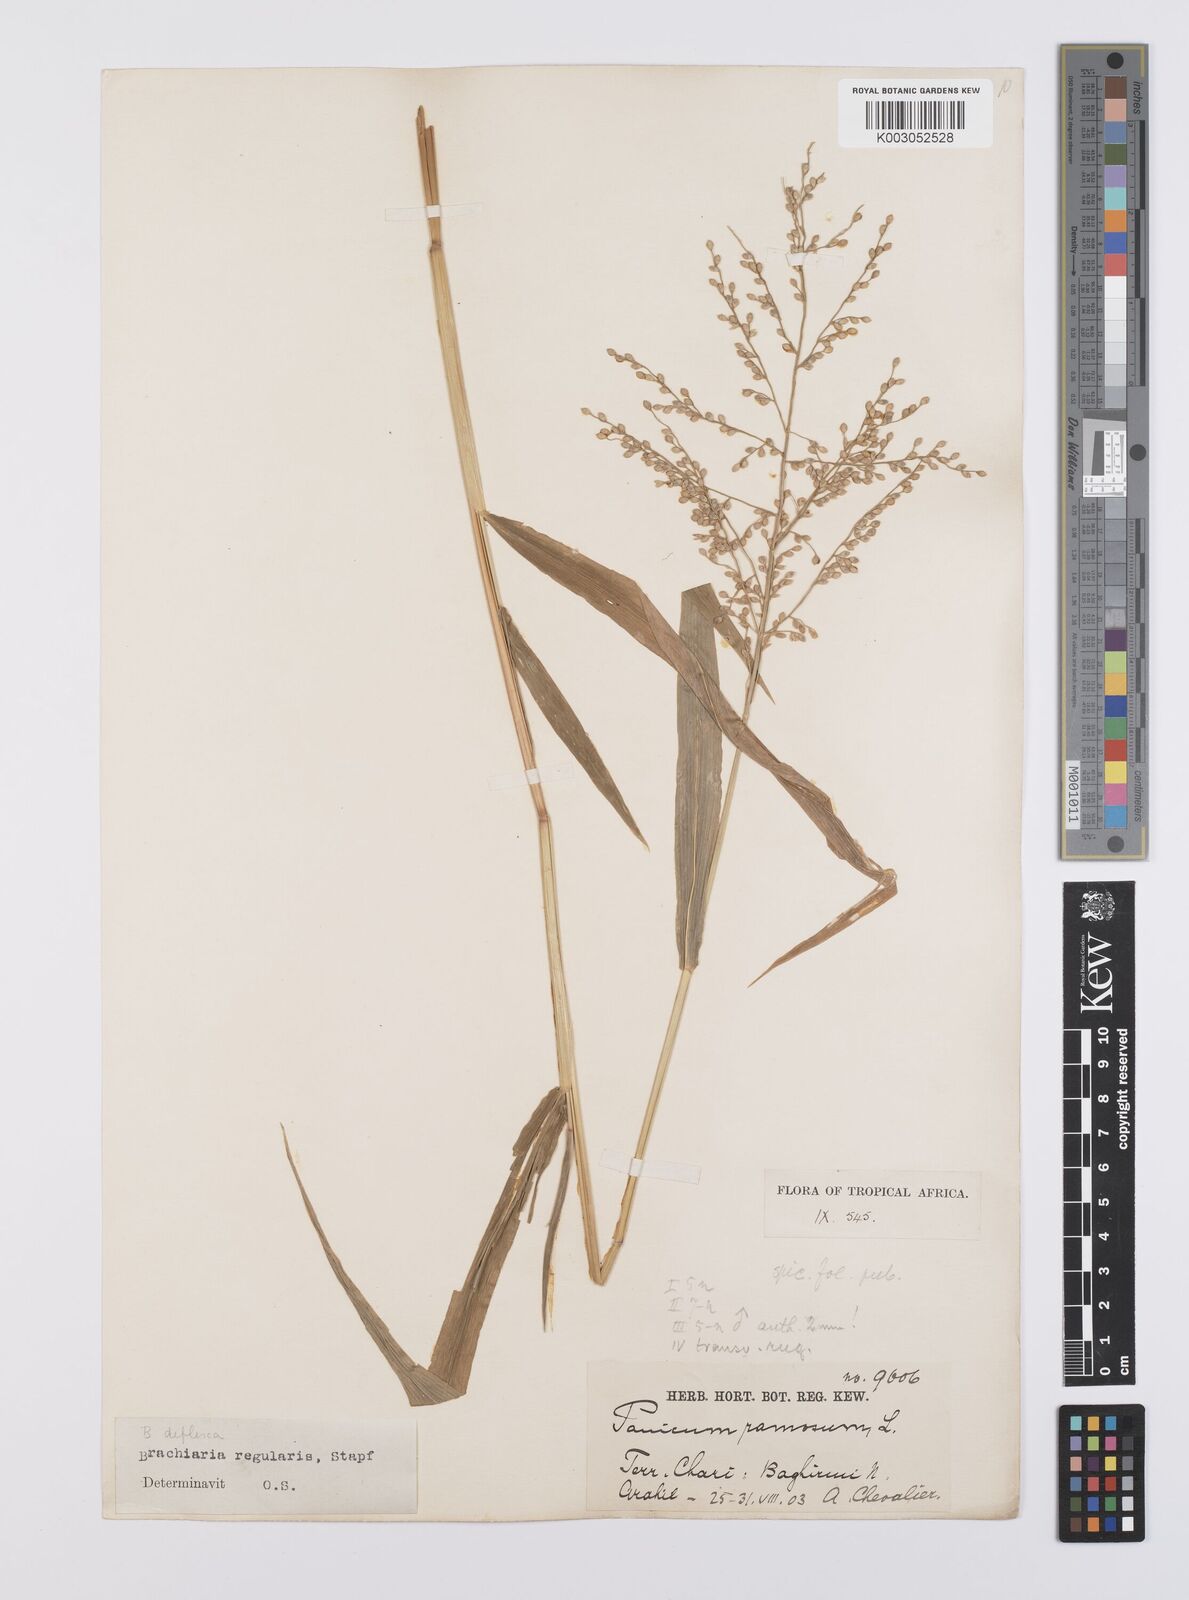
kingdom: Plantae
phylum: Tracheophyta
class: Liliopsida
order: Poales
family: Poaceae
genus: Urochloa
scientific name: Urochloa deflexa
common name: Guinea millet
